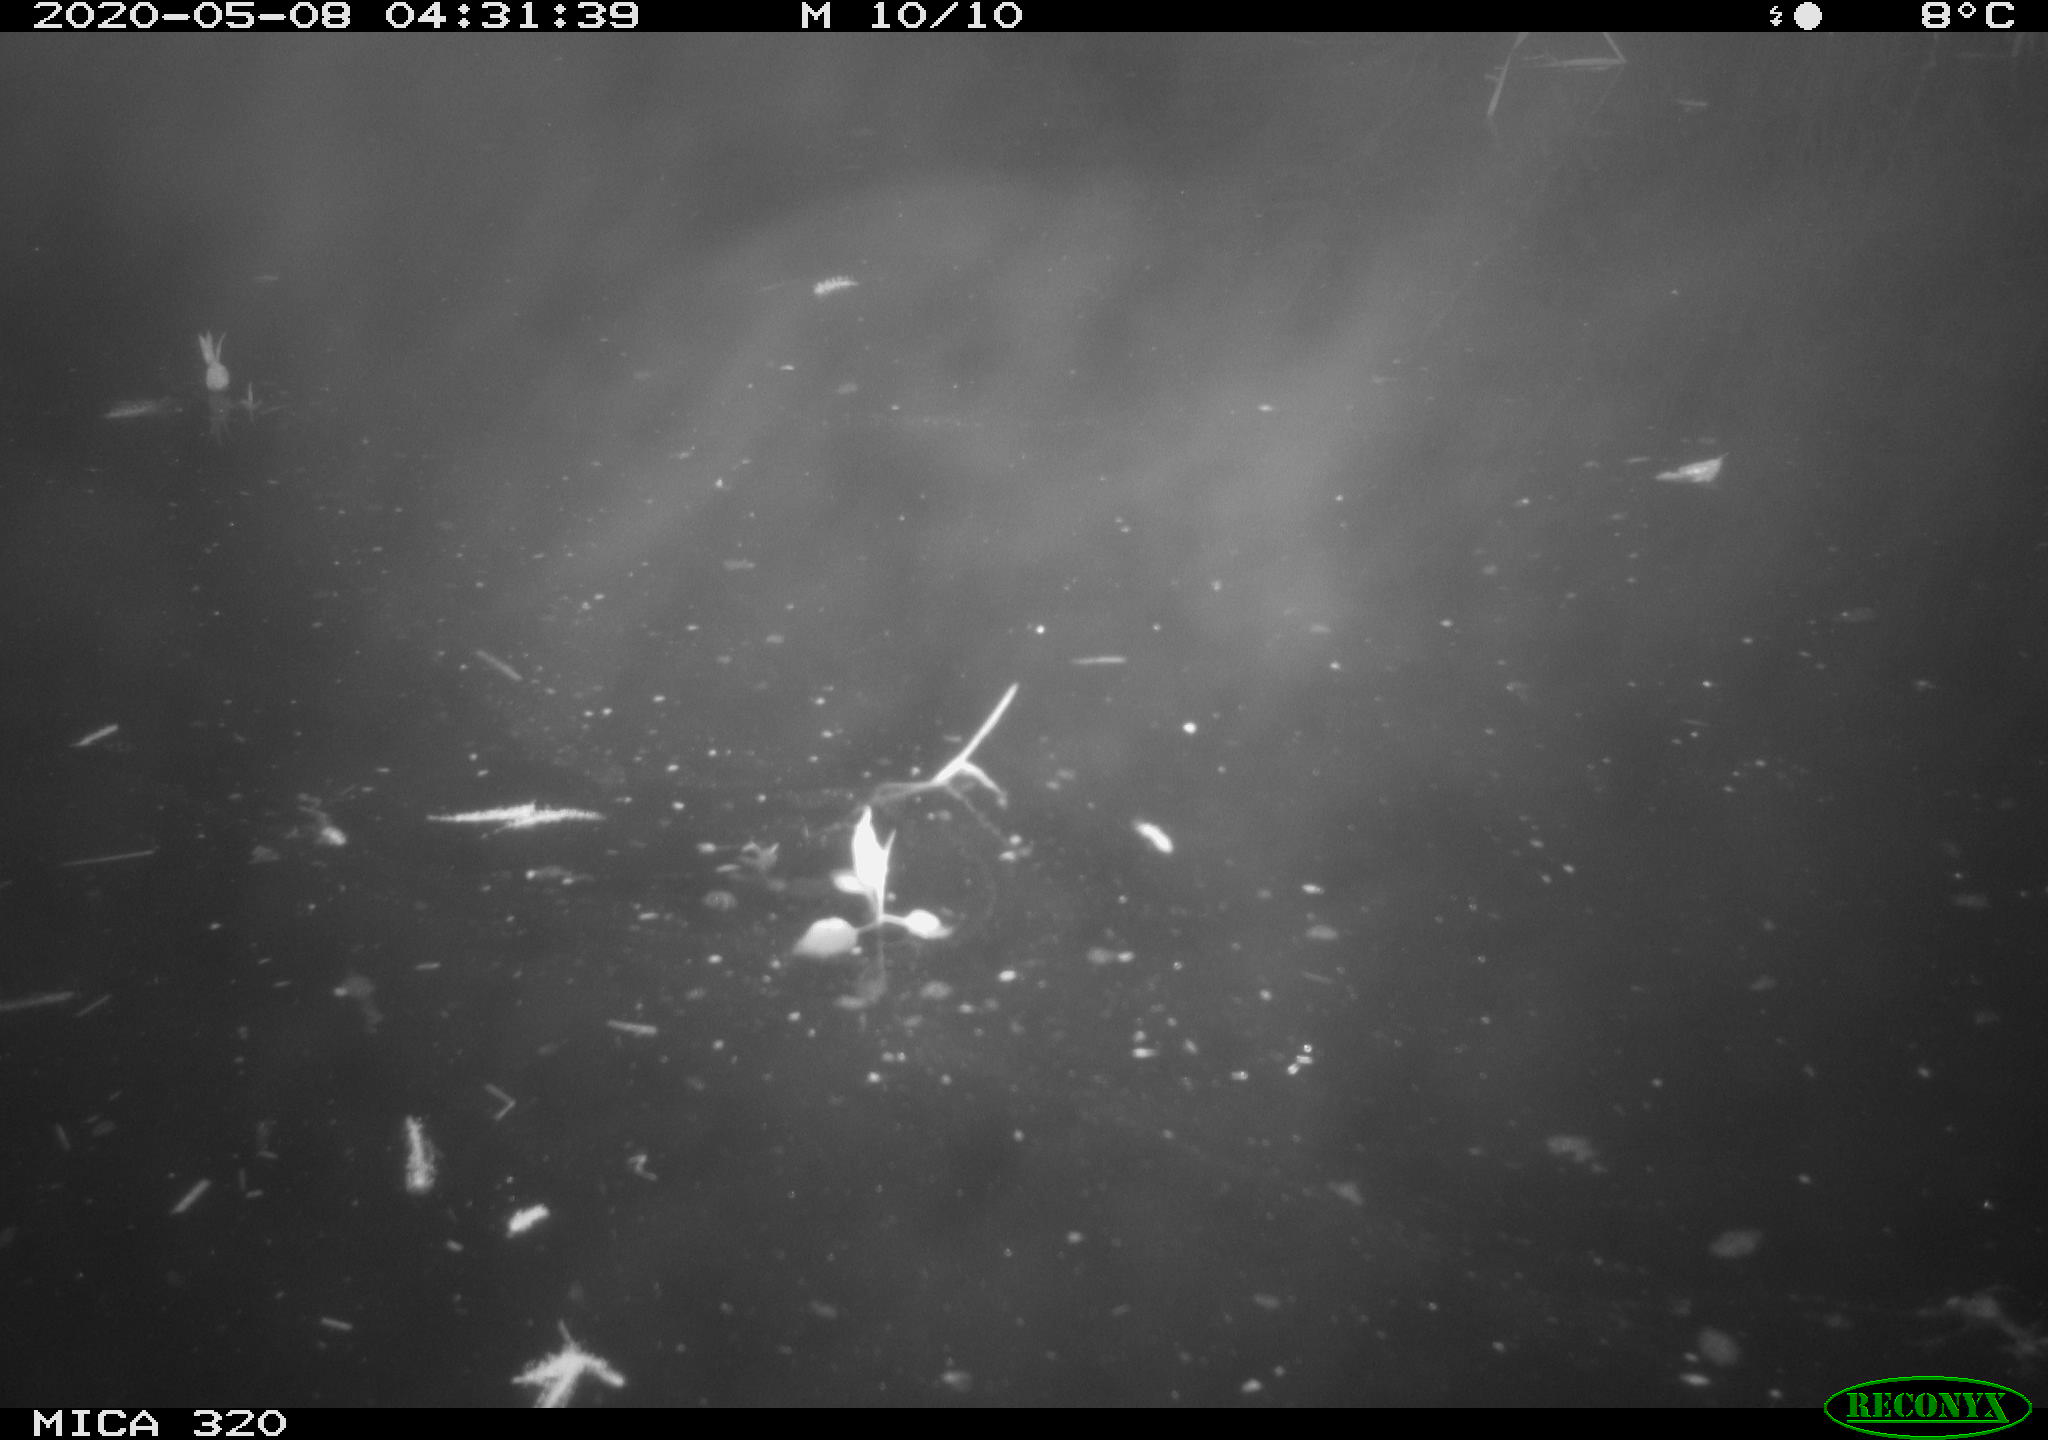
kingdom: Animalia
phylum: Chordata
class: Aves
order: Anseriformes
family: Anatidae
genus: Anas
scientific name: Anas platyrhynchos
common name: Mallard
